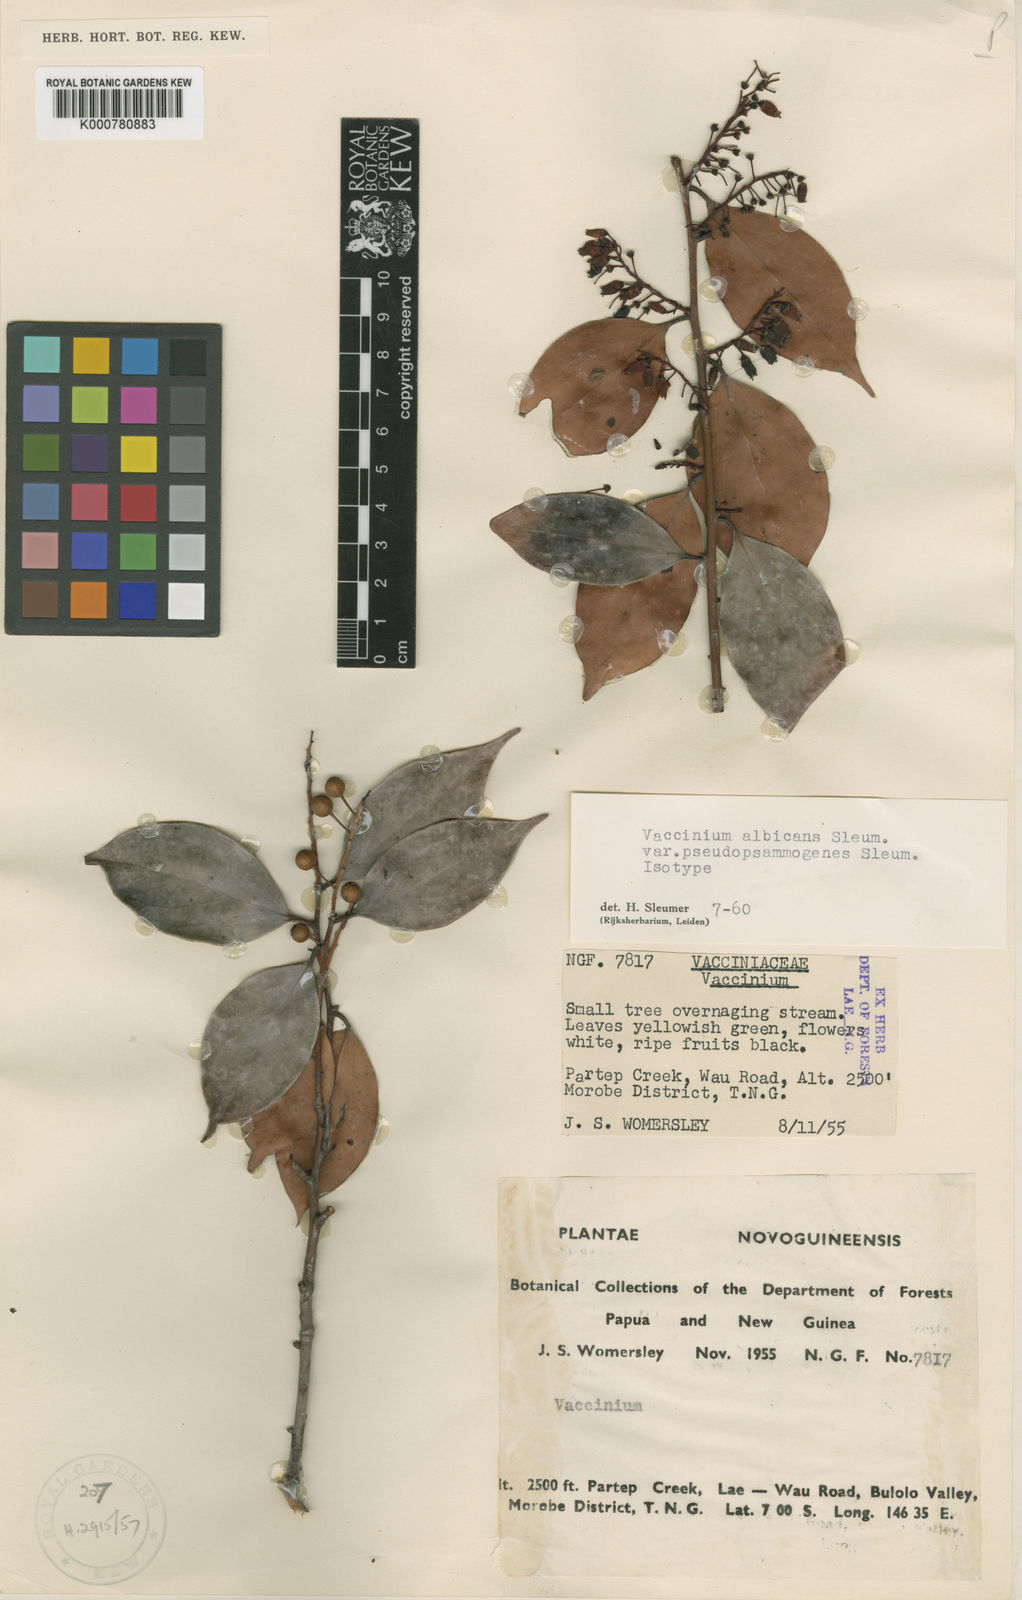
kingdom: Plantae
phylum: Tracheophyta
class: Magnoliopsida
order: Ericales
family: Ericaceae
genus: Vaccinium
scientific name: Vaccinium albicans
